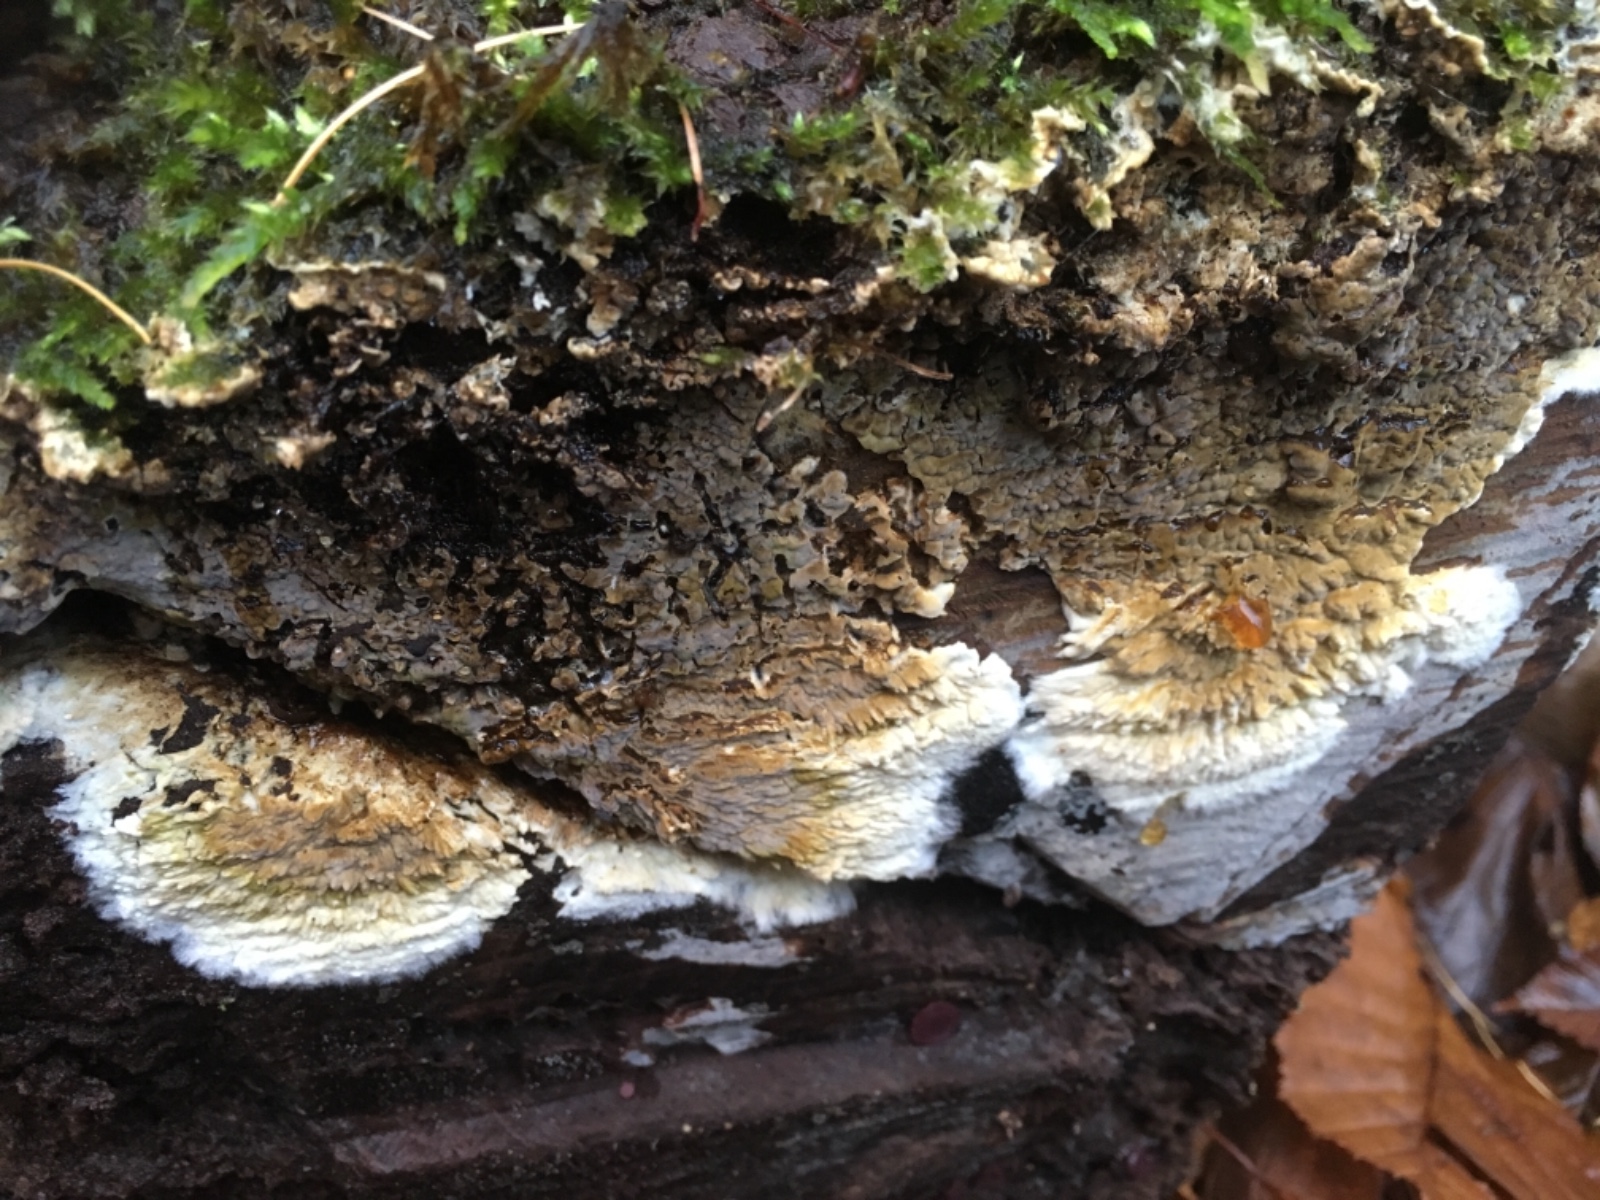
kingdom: Fungi
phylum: Basidiomycota
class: Agaricomycetes
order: Boletales
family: Coniophoraceae
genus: Coniophora
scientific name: Coniophora puteana
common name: gul tømmersvamp
